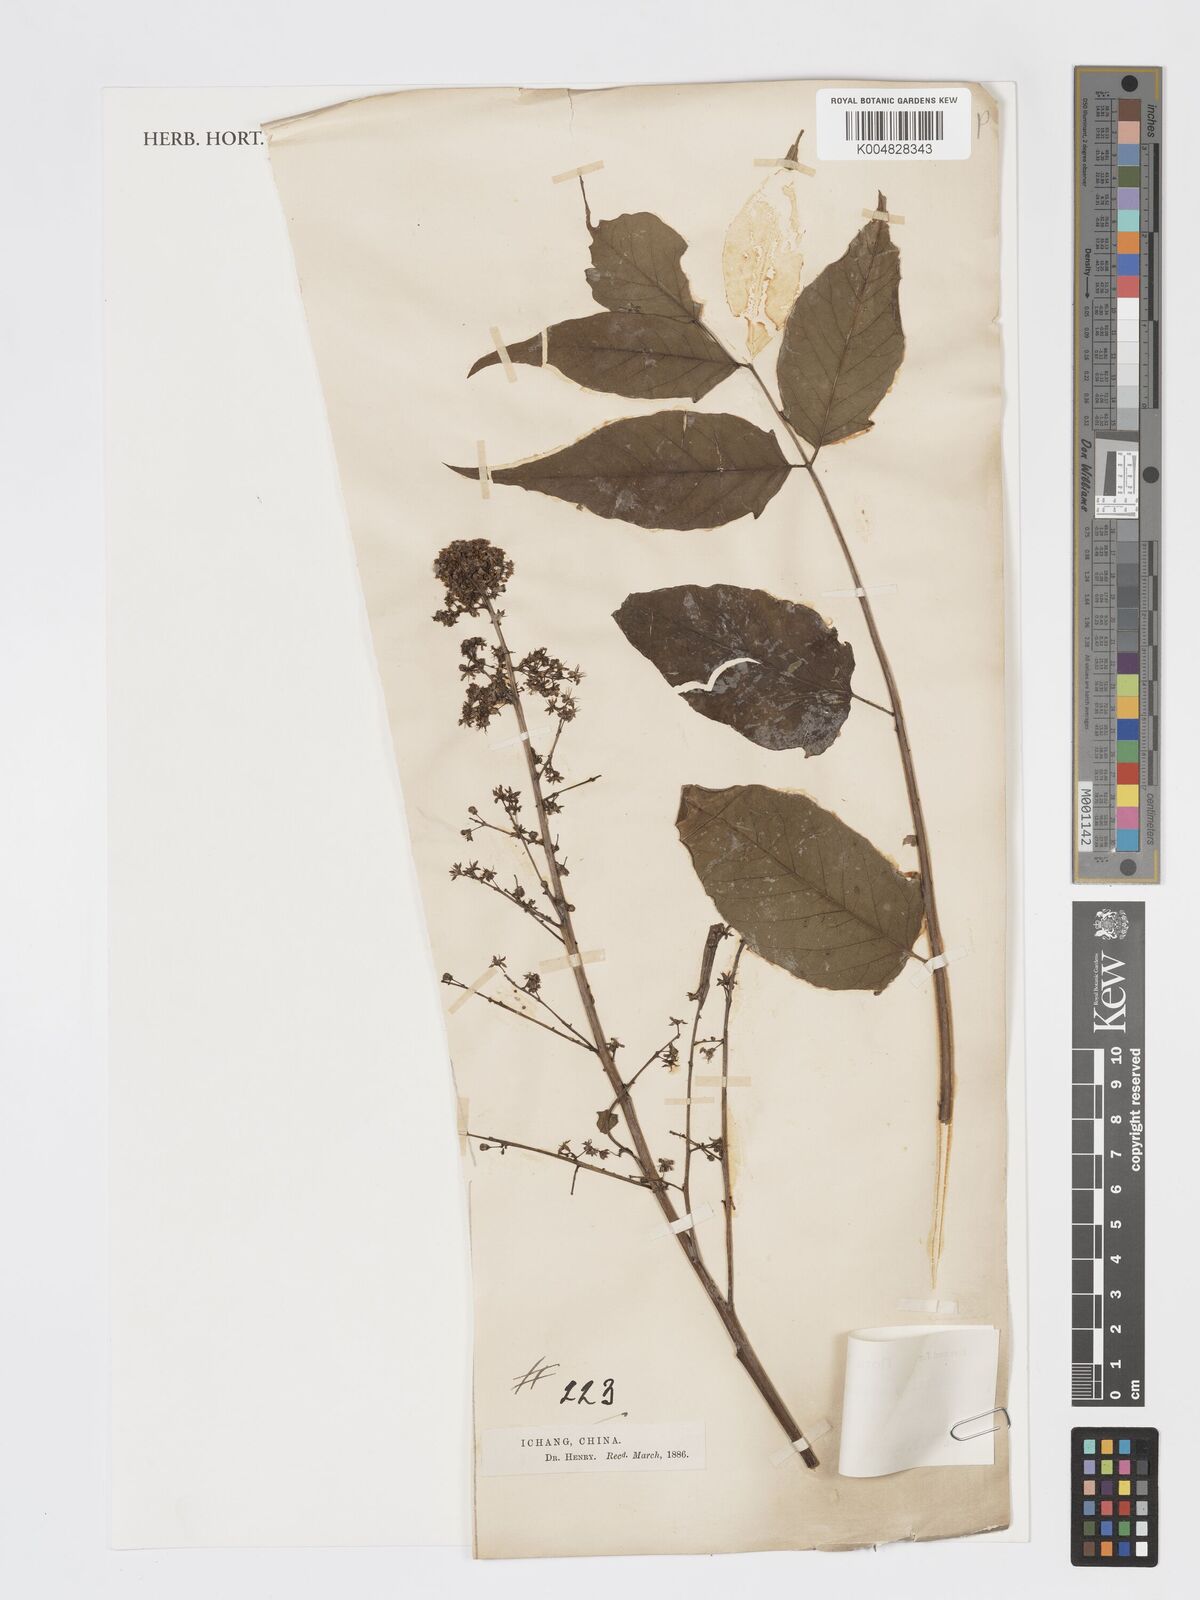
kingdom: Plantae
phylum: Tracheophyta
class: Magnoliopsida
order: Sapindales
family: Simaroubaceae
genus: Ailanthus
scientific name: Ailanthus altissima
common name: Tree-of-heaven
